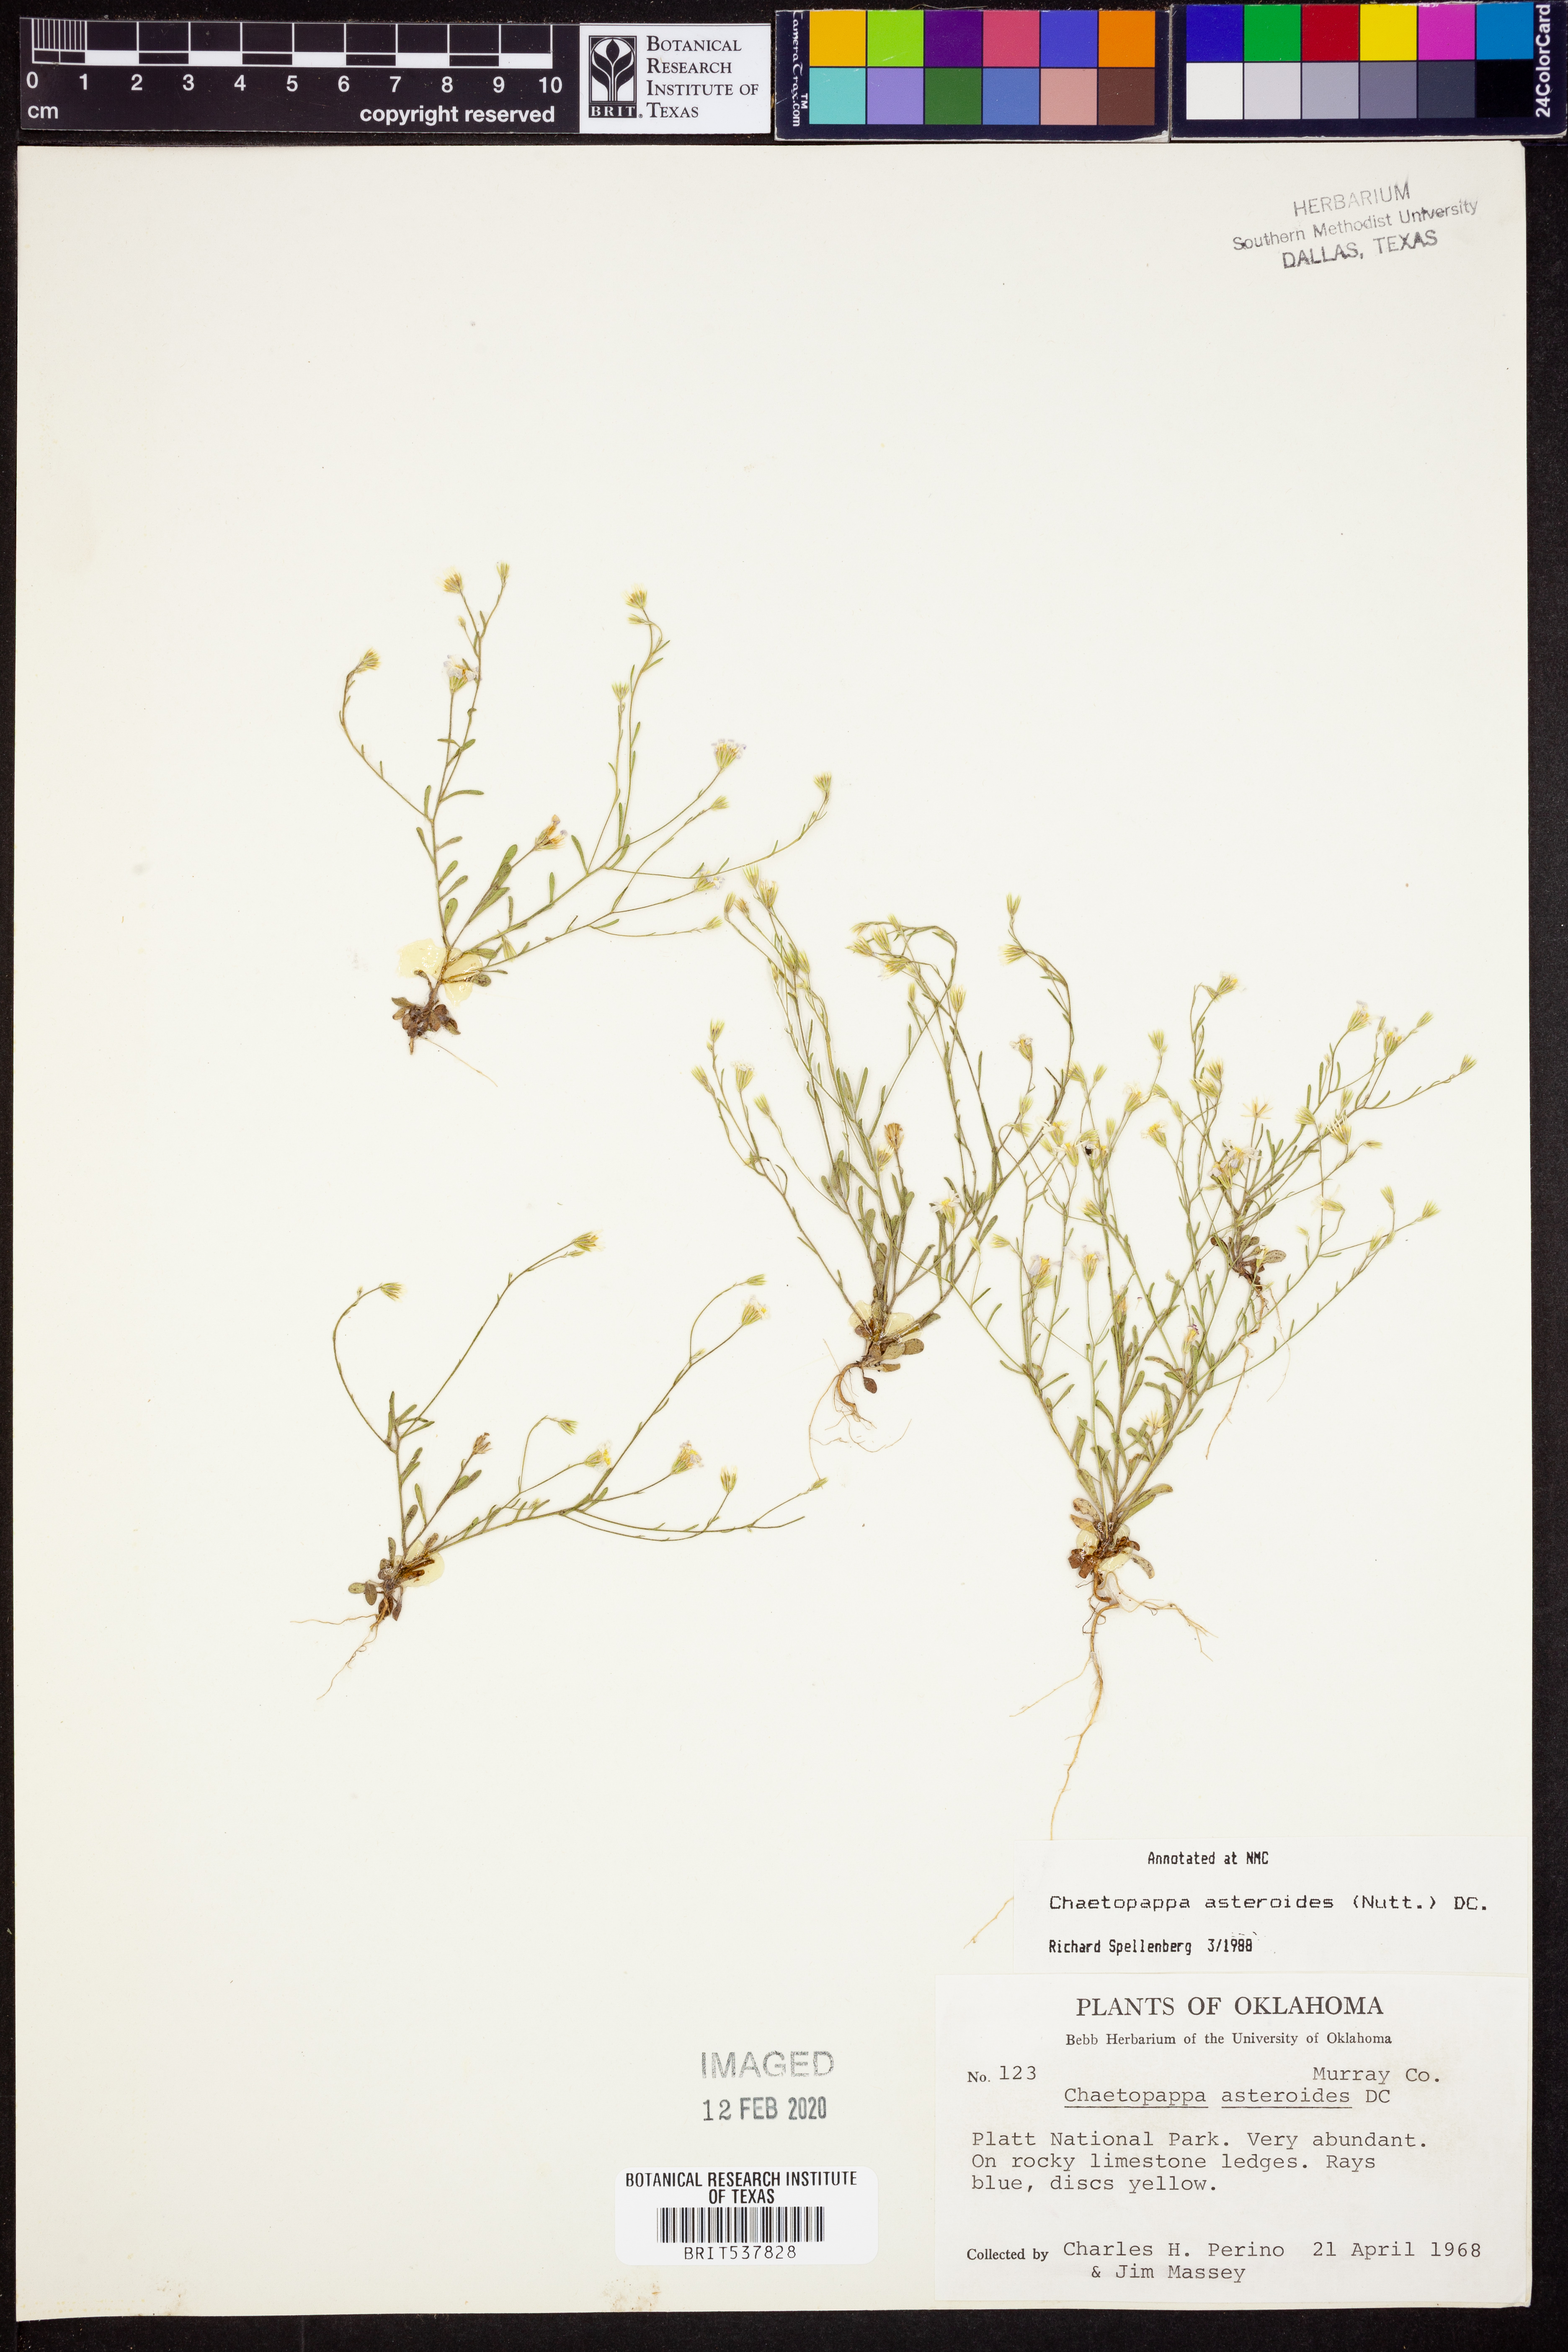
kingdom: Plantae
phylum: Tracheophyta
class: Magnoliopsida
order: Asterales
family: Asteraceae
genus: Chaetopappa
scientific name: Chaetopappa asteroides
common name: Tiny lazy daisy
